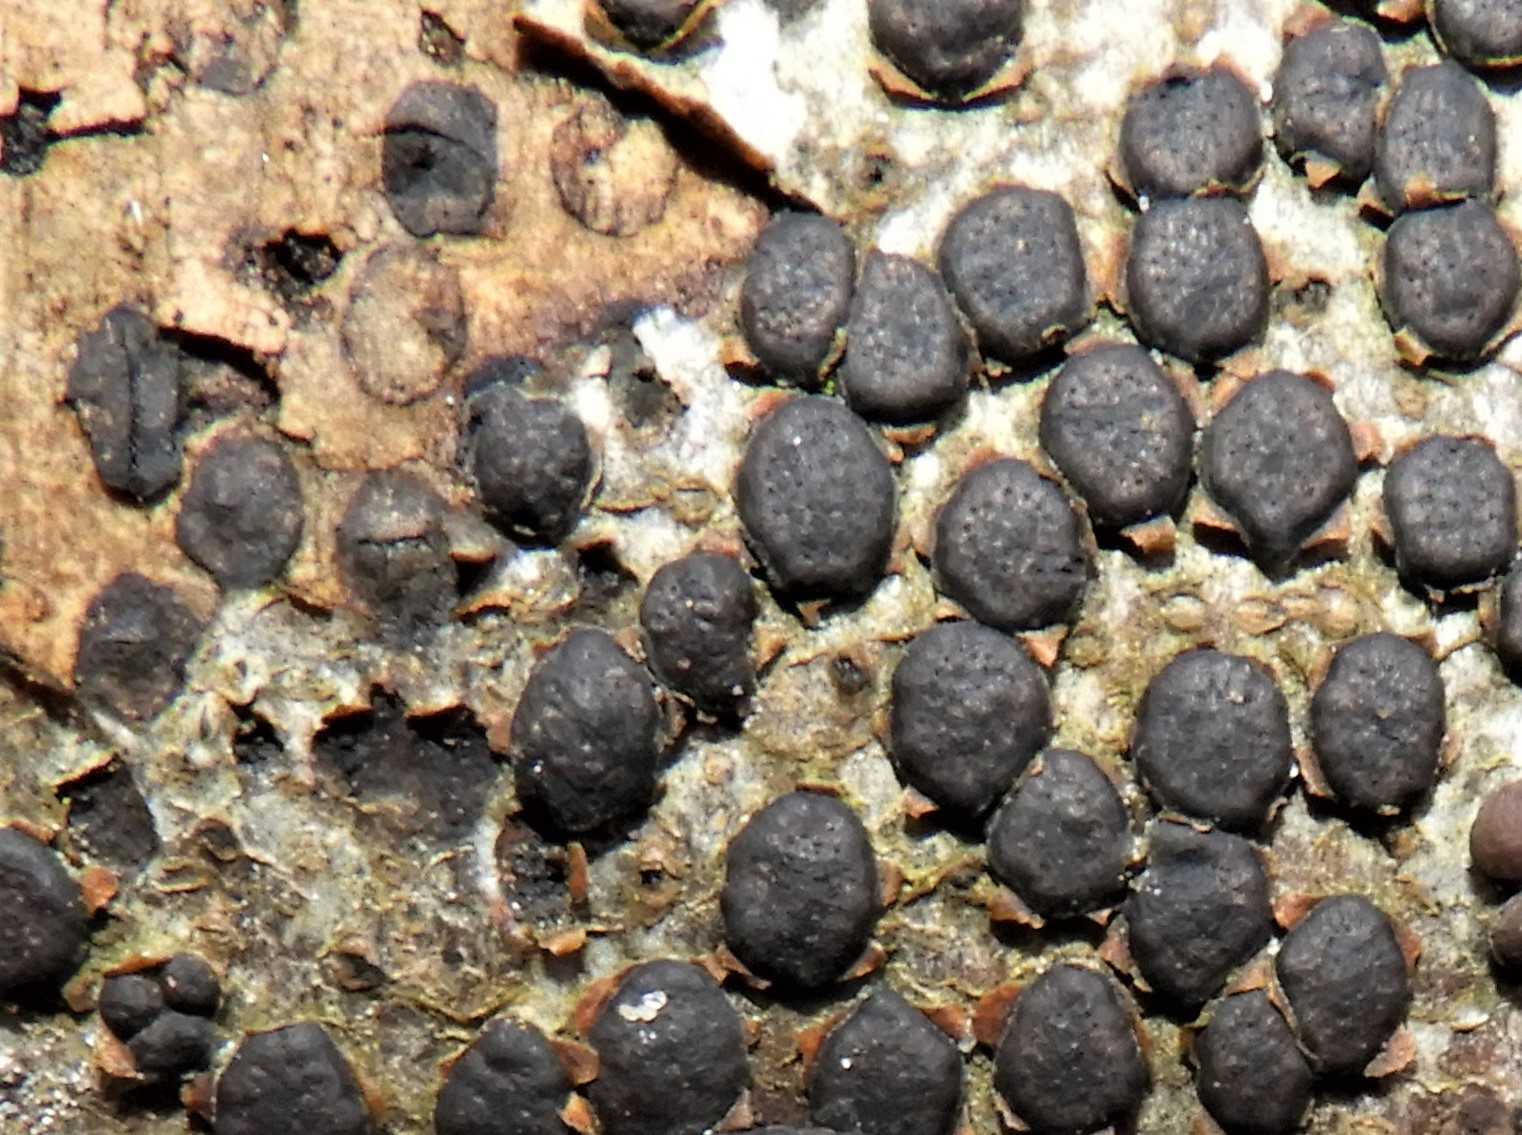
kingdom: Fungi
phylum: Ascomycota
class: Sordariomycetes
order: Xylariales
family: Diatrypaceae
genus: Diatrype
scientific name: Diatrype disciformis
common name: kant-kulskorpe
